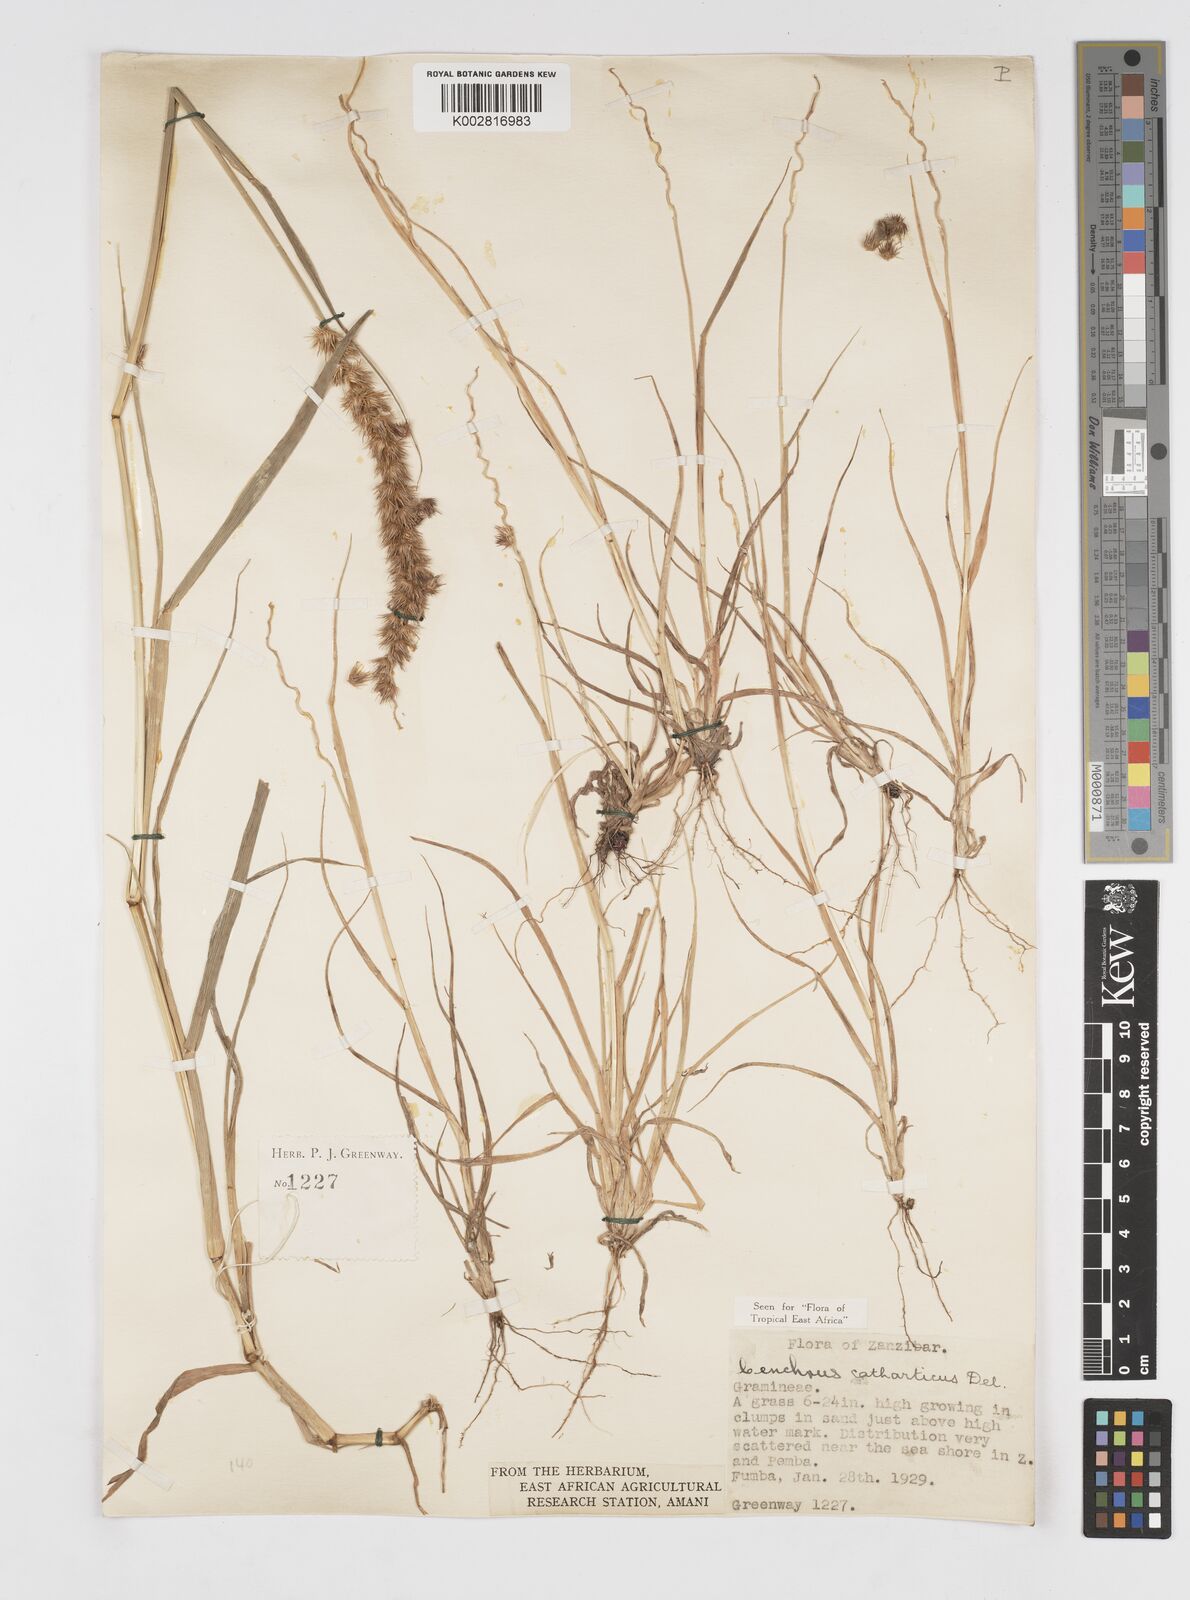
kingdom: Plantae
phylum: Tracheophyta
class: Liliopsida
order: Poales
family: Poaceae
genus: Cenchrus
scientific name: Cenchrus biflorus
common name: Indian sandbur
